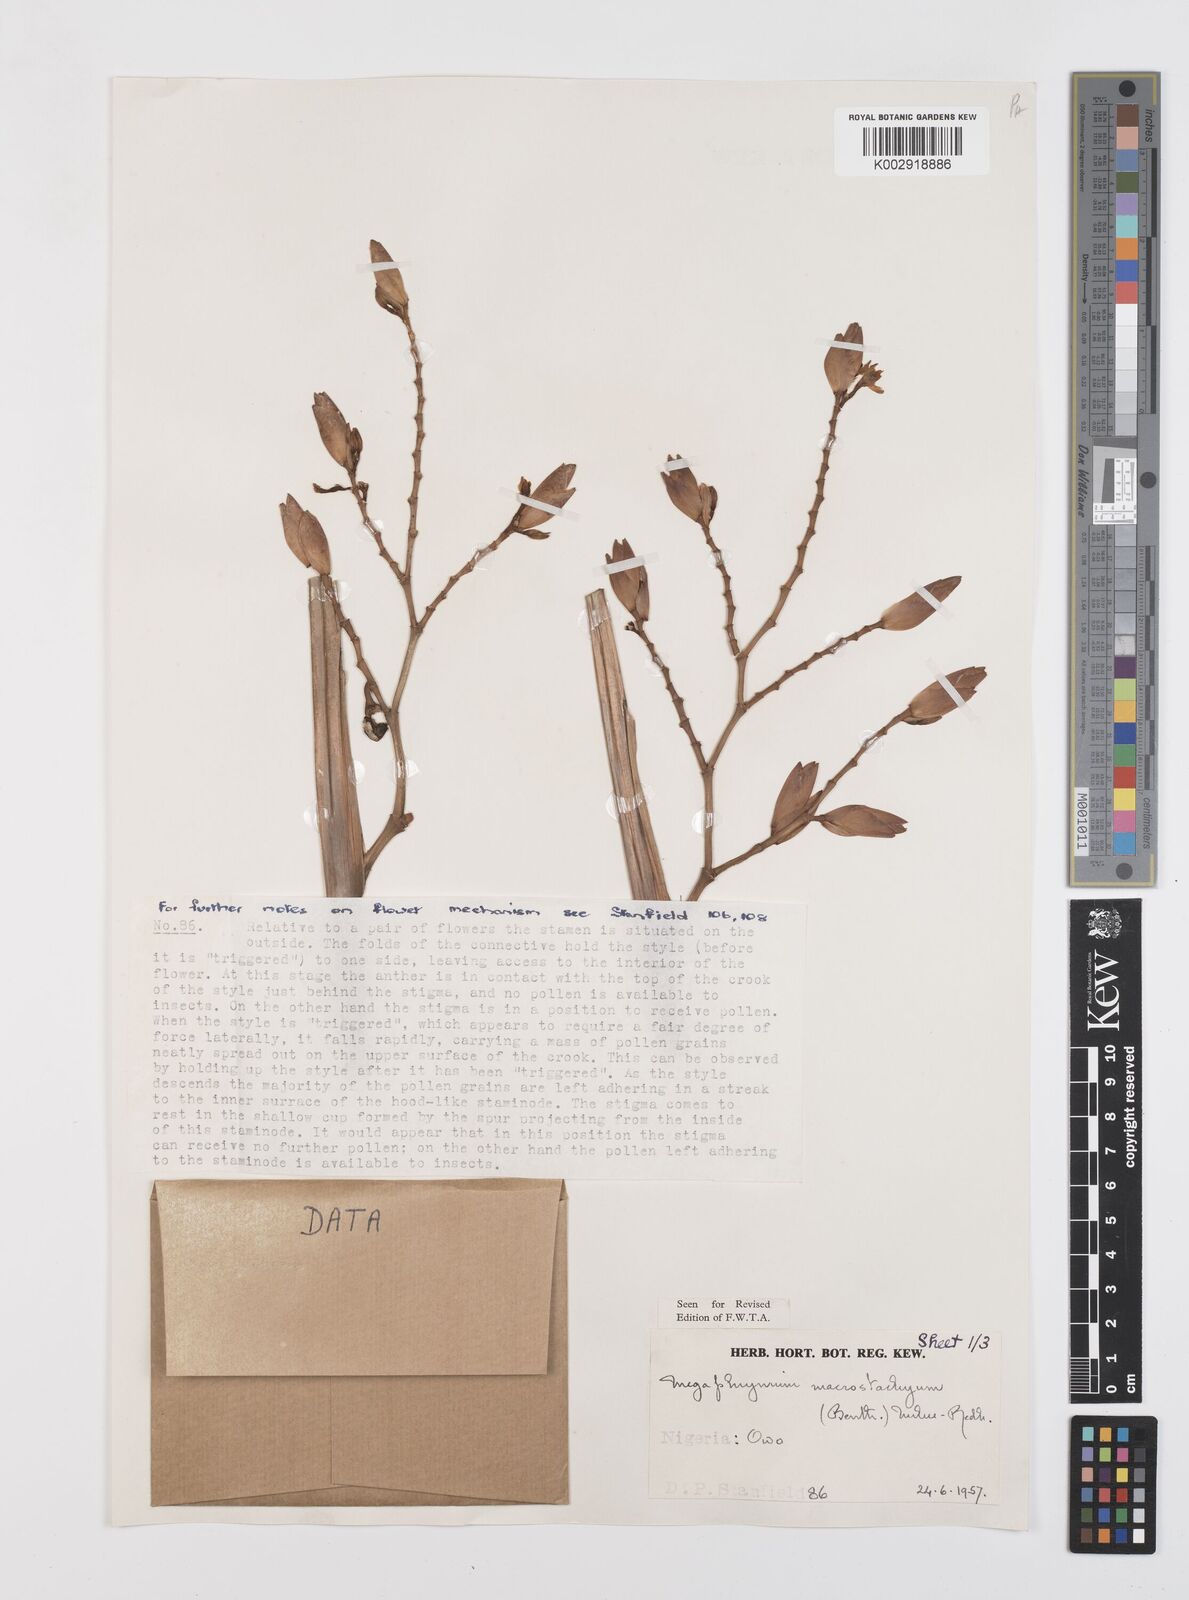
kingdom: Plantae
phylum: Tracheophyta
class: Liliopsida
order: Zingiberales
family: Marantaceae
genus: Megaphrynium
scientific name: Megaphrynium macrostachyum
